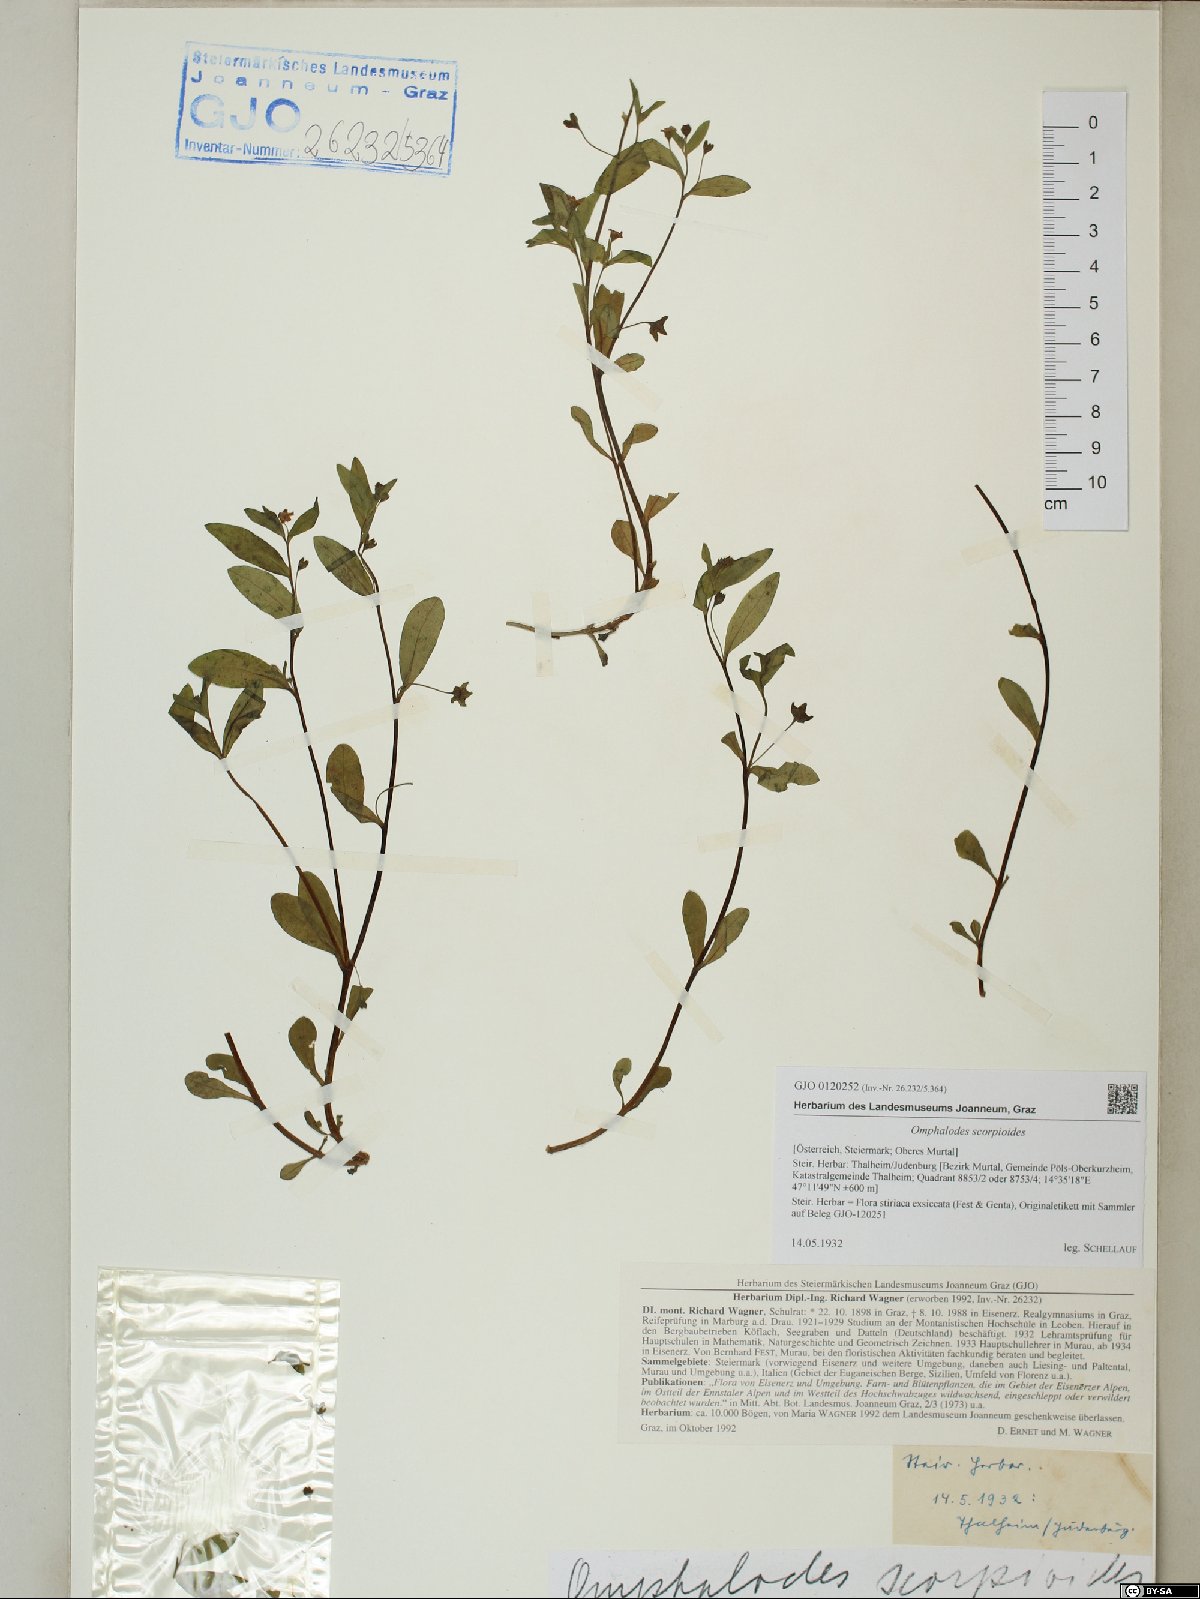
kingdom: Plantae
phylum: Tracheophyta
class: Magnoliopsida
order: Boraginales
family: Boraginaceae
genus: Memoremea
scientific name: Memoremea scorpioides
